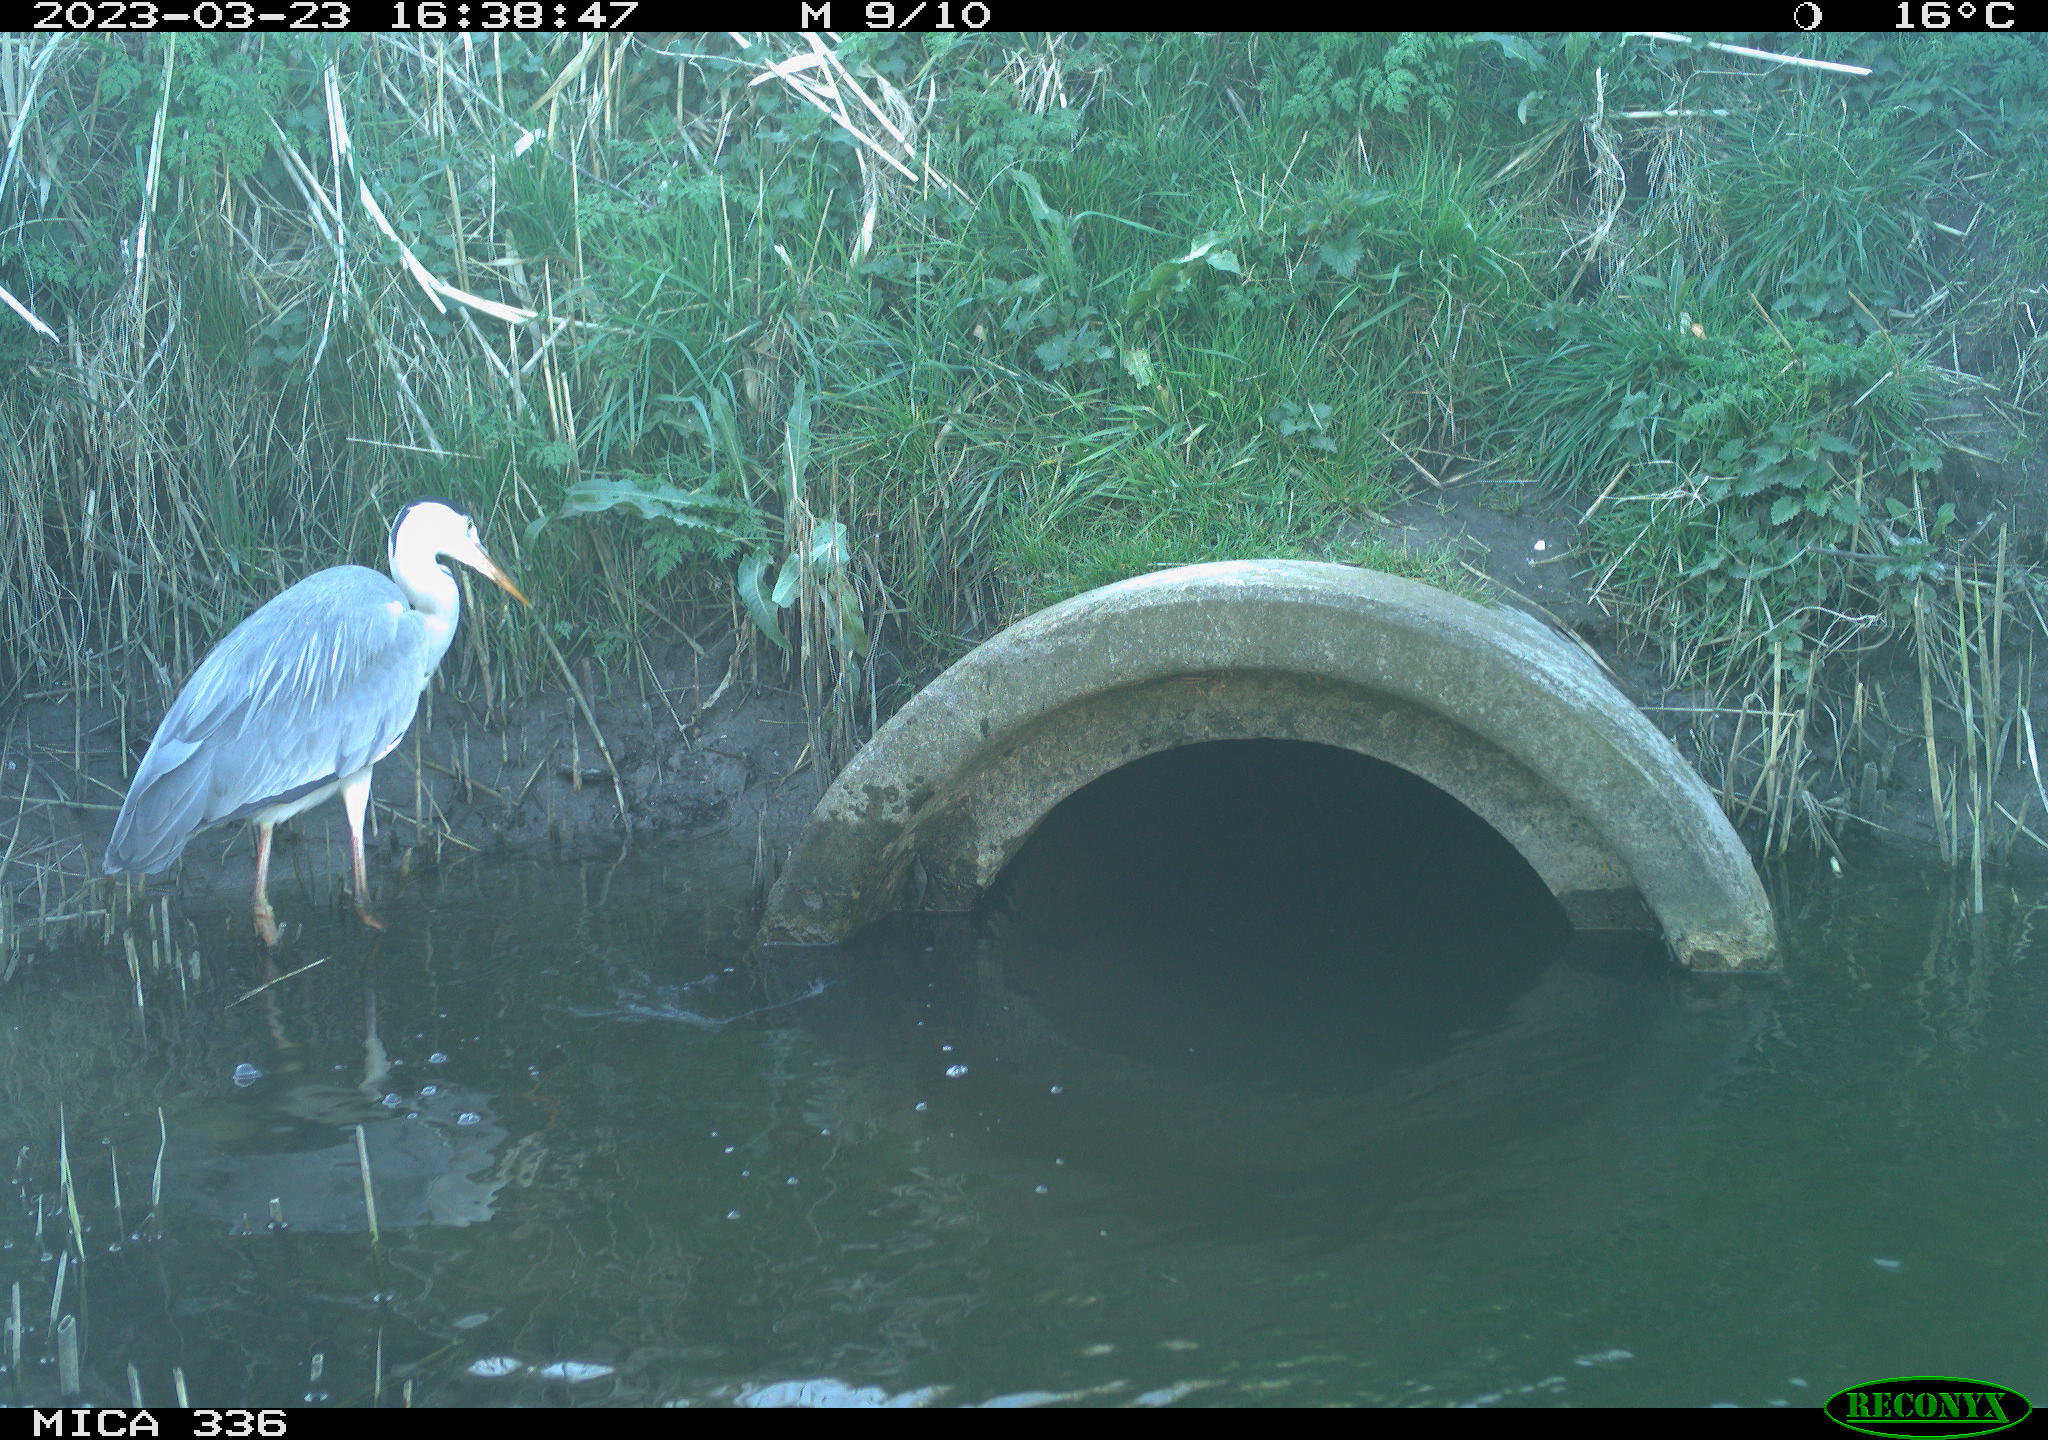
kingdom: Animalia
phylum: Chordata
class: Aves
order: Pelecaniformes
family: Ardeidae
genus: Ardea
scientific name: Ardea cinerea
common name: Grey heron
